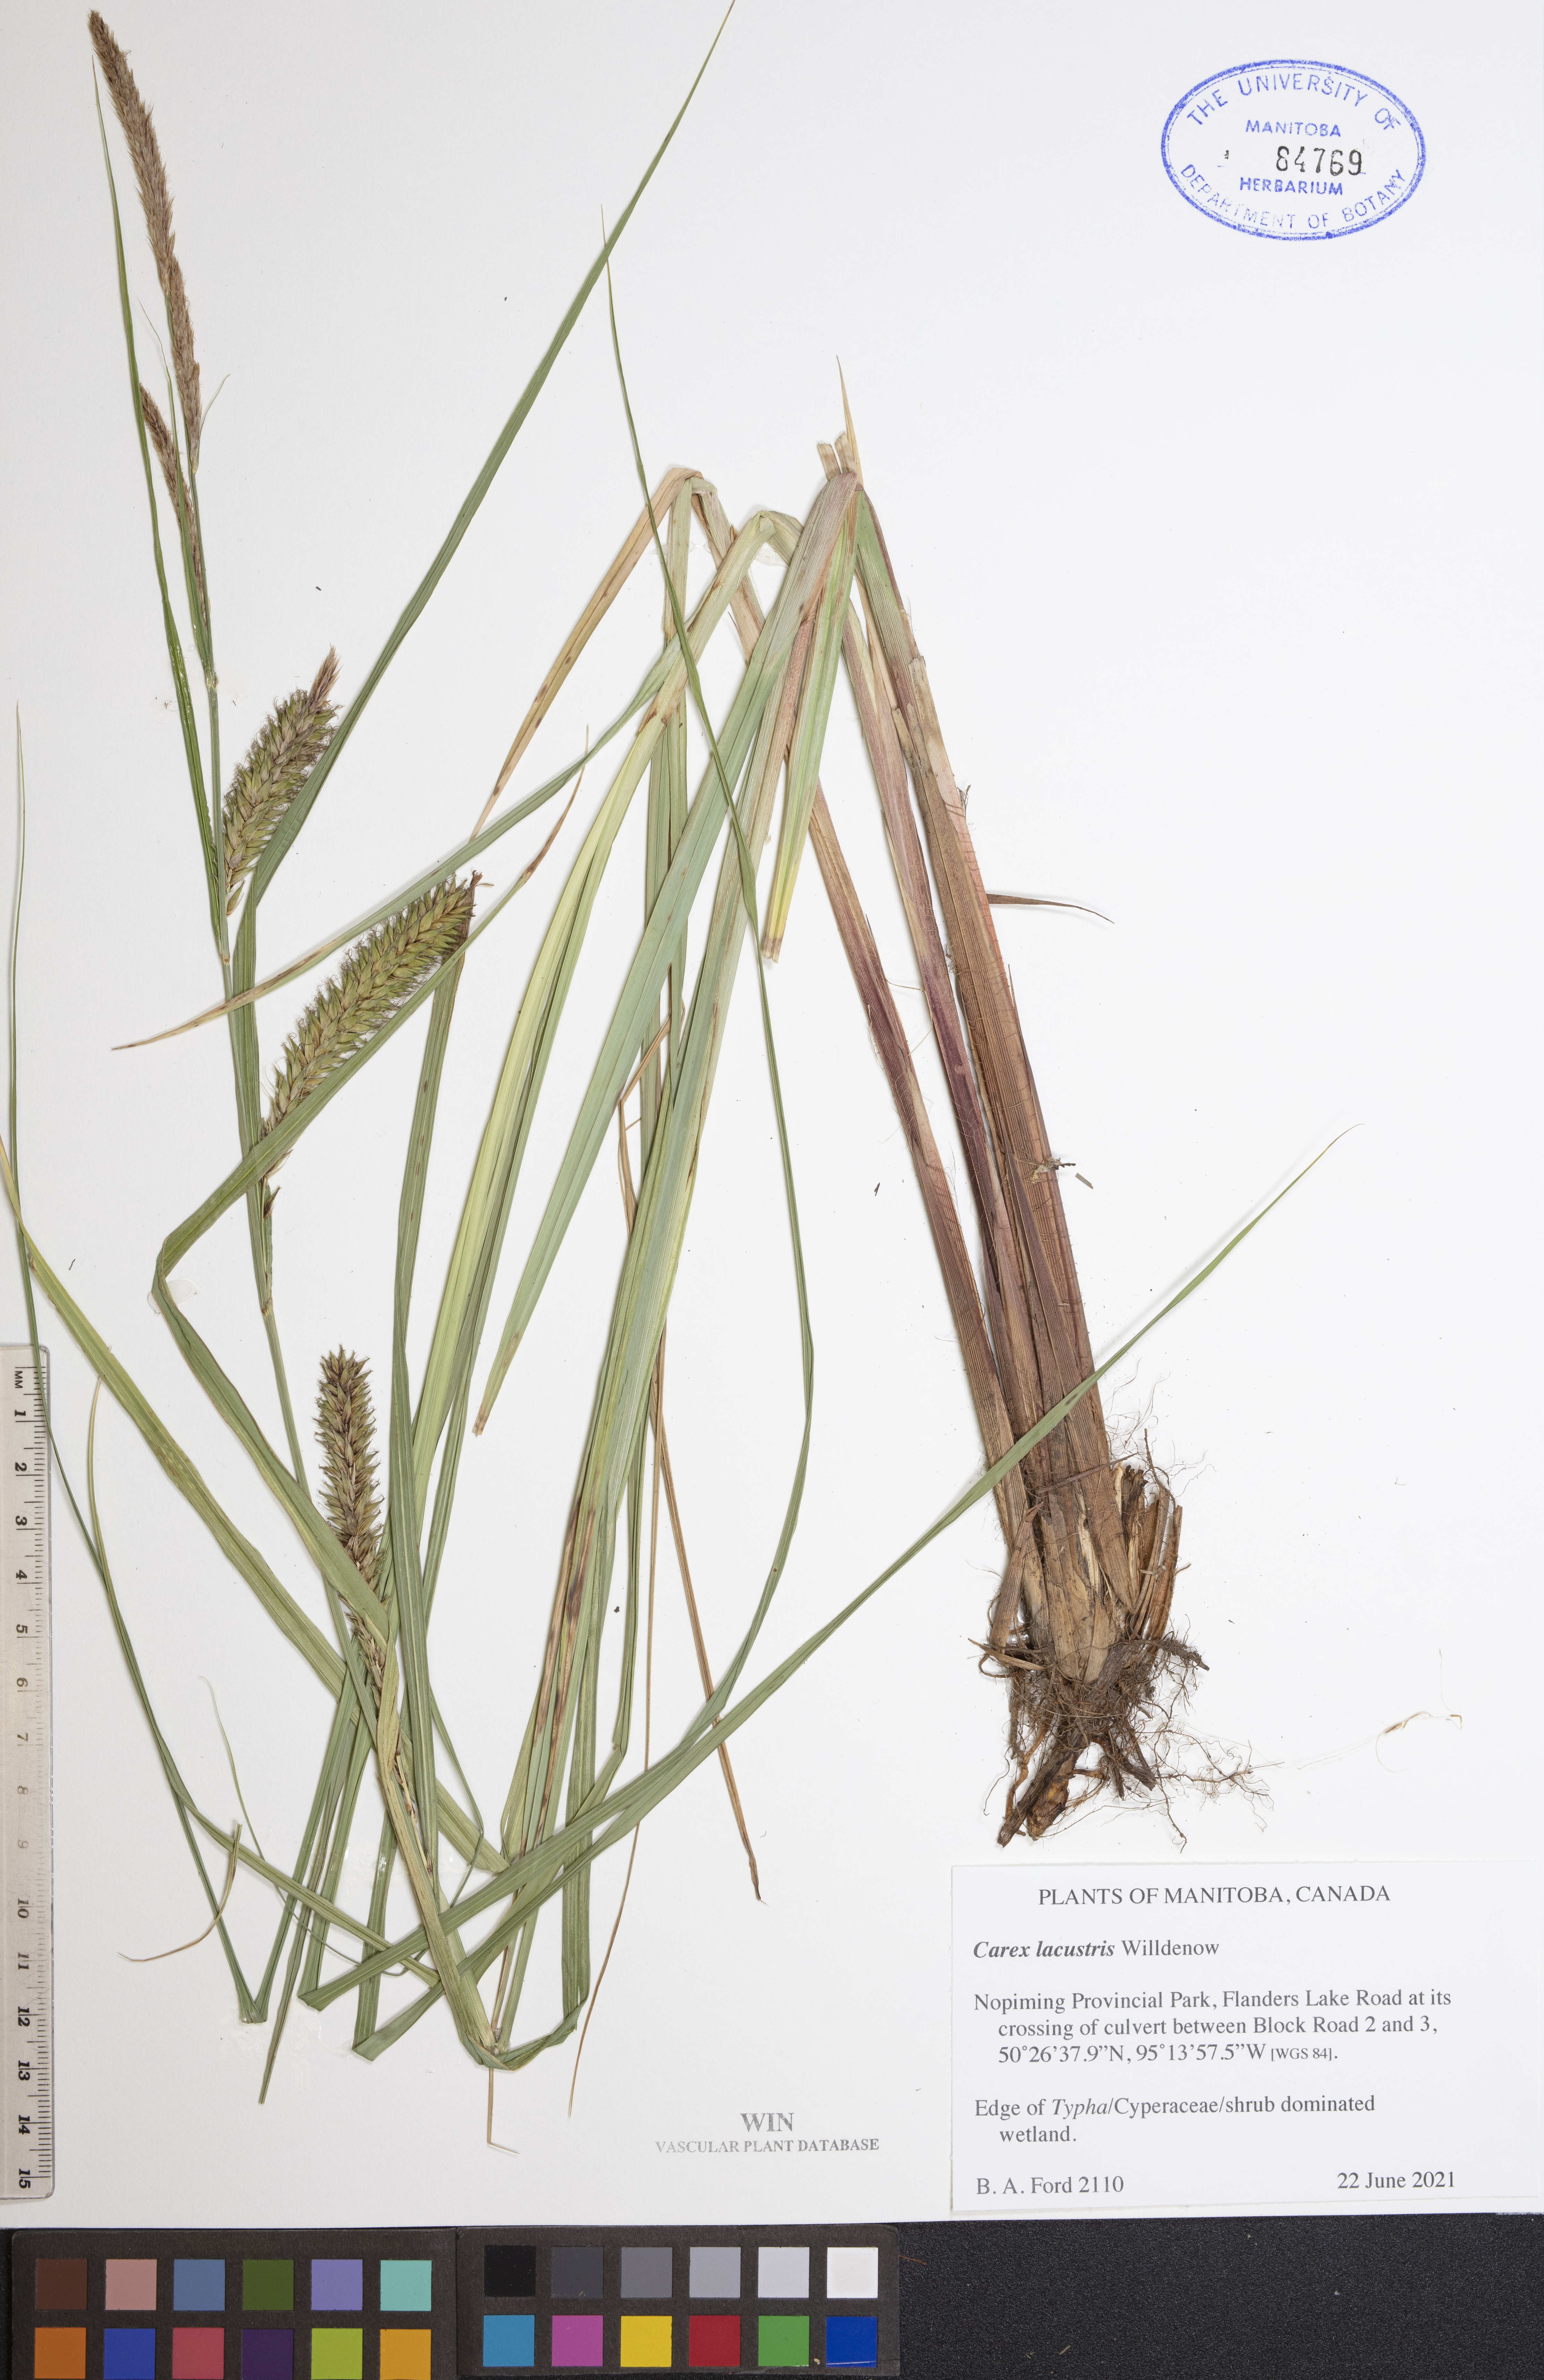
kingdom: Plantae
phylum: Tracheophyta
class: Liliopsida
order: Poales
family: Cyperaceae
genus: Carex
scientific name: Carex lacustris
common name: Common lake sedge
